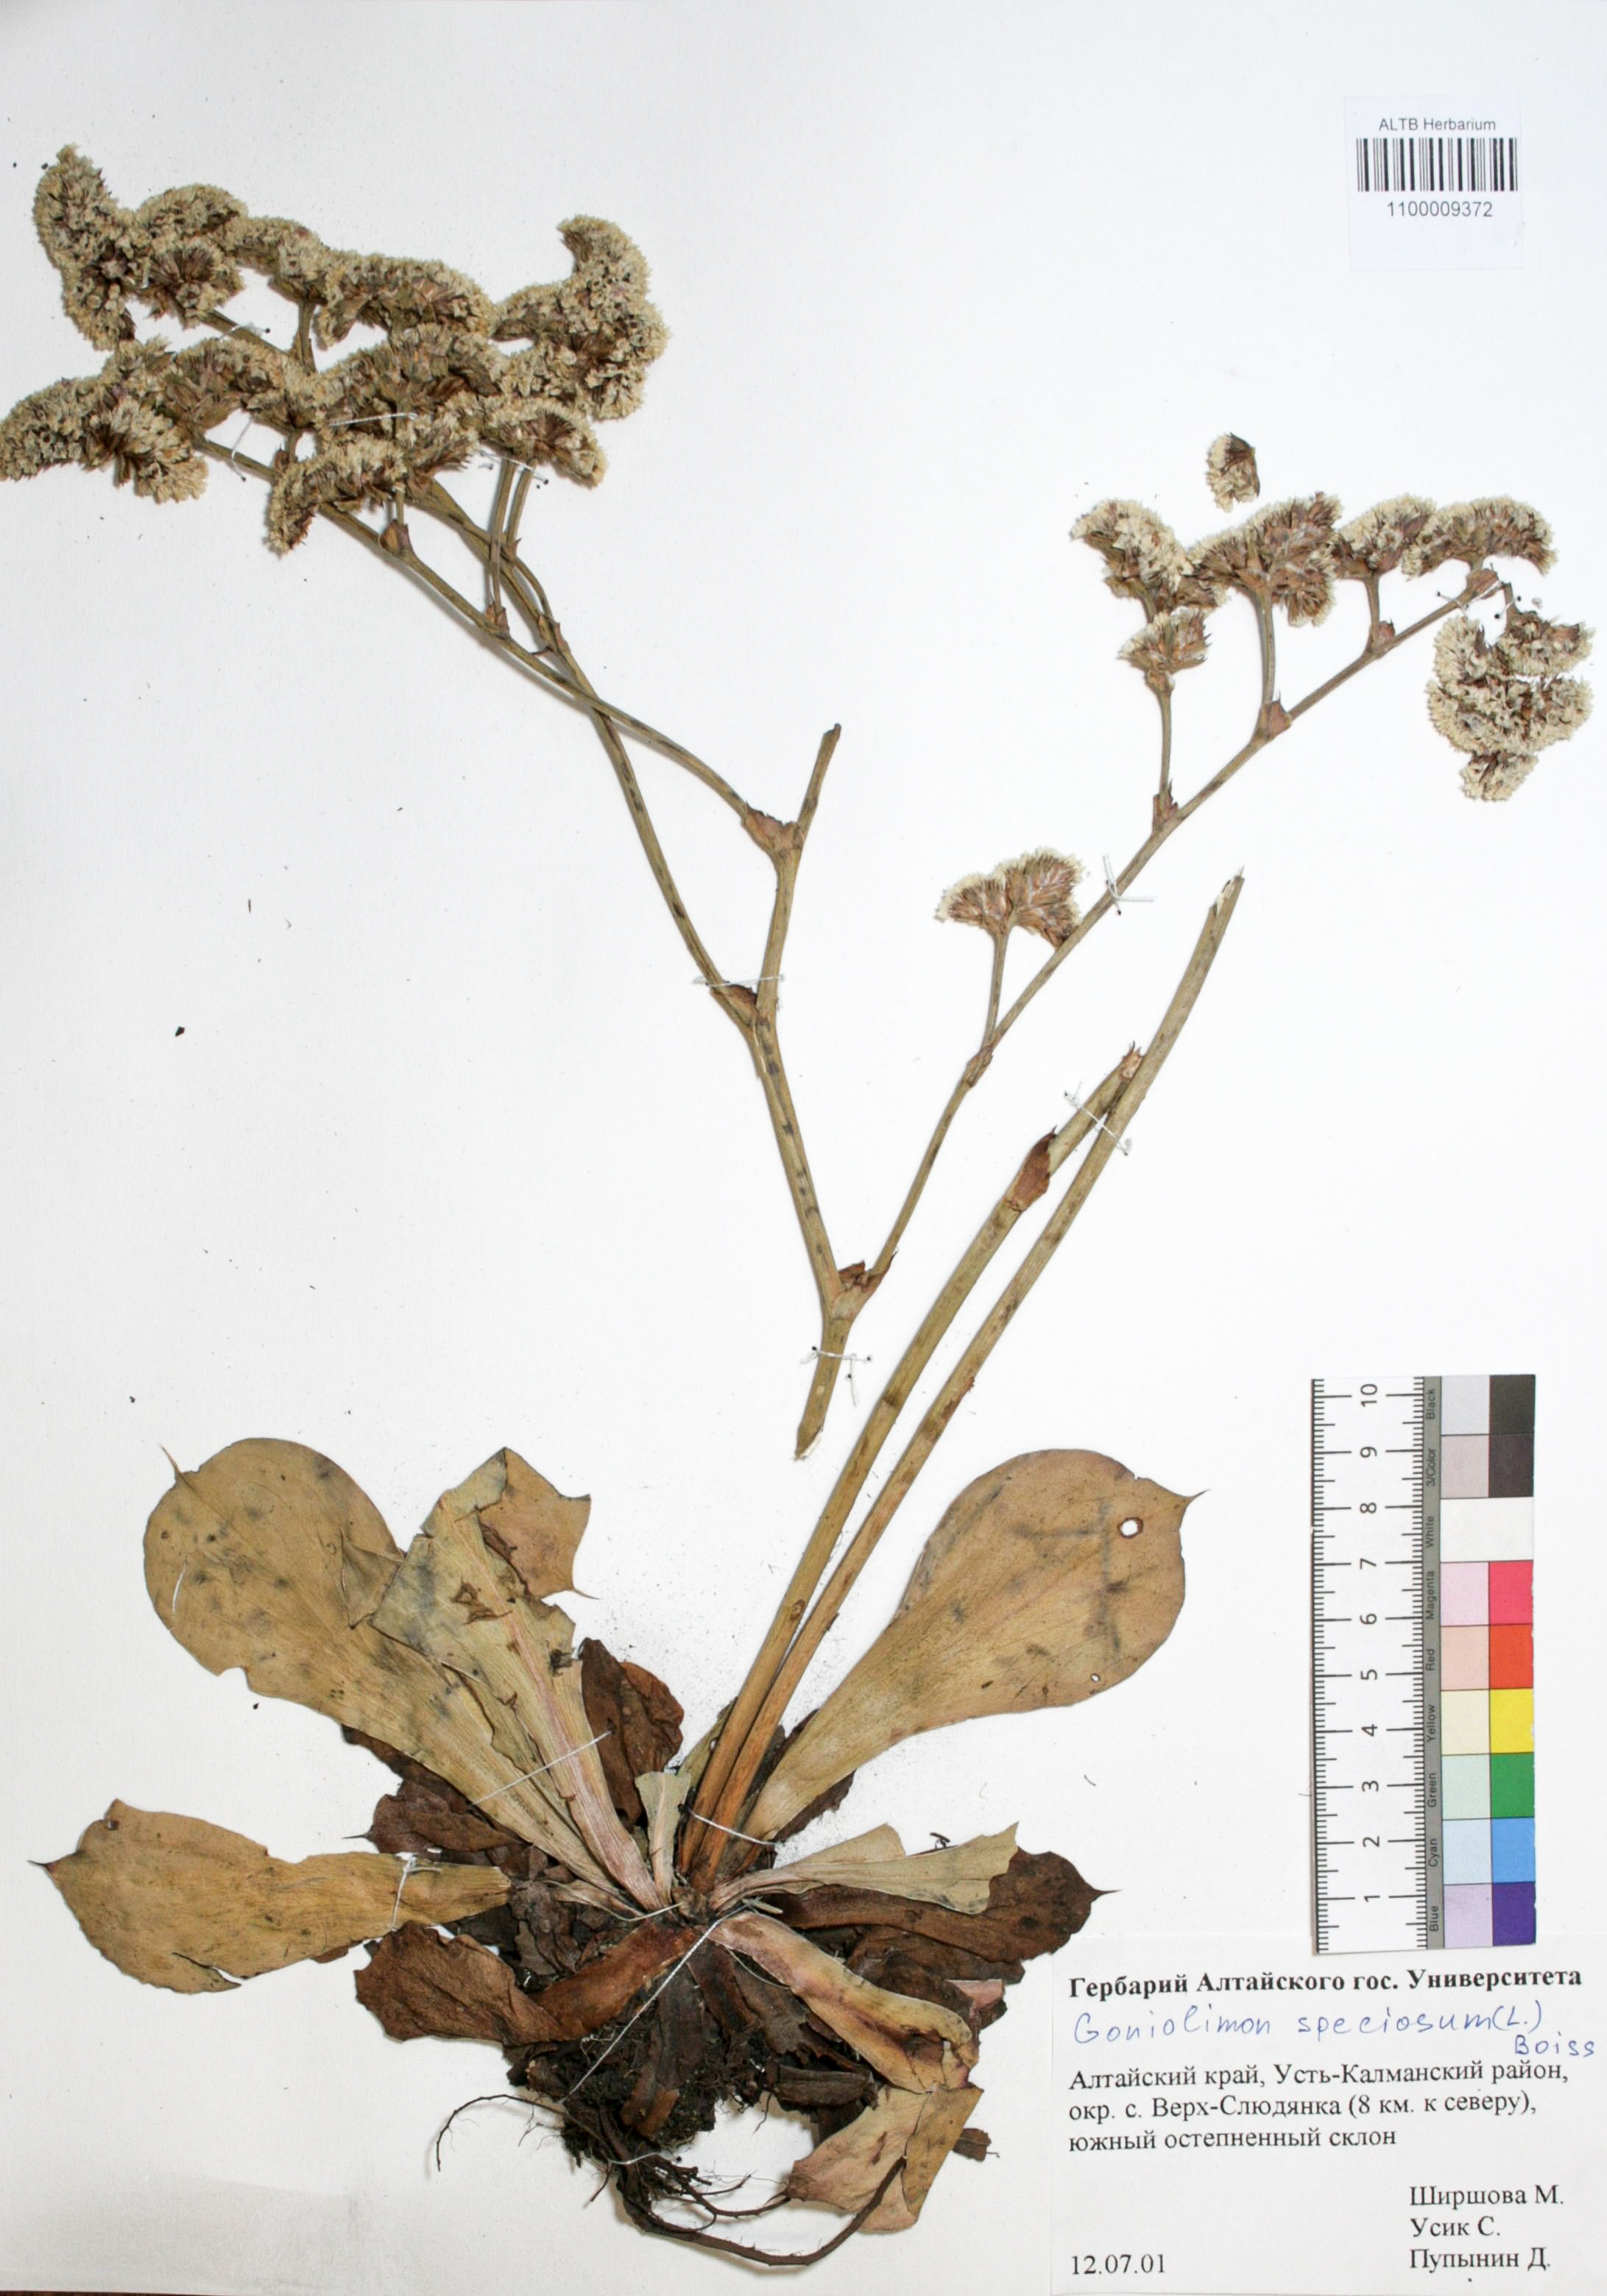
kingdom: Plantae
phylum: Tracheophyta
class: Magnoliopsida
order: Caryophyllales
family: Plumbaginaceae
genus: Goniolimon
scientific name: Goniolimon speciosum
